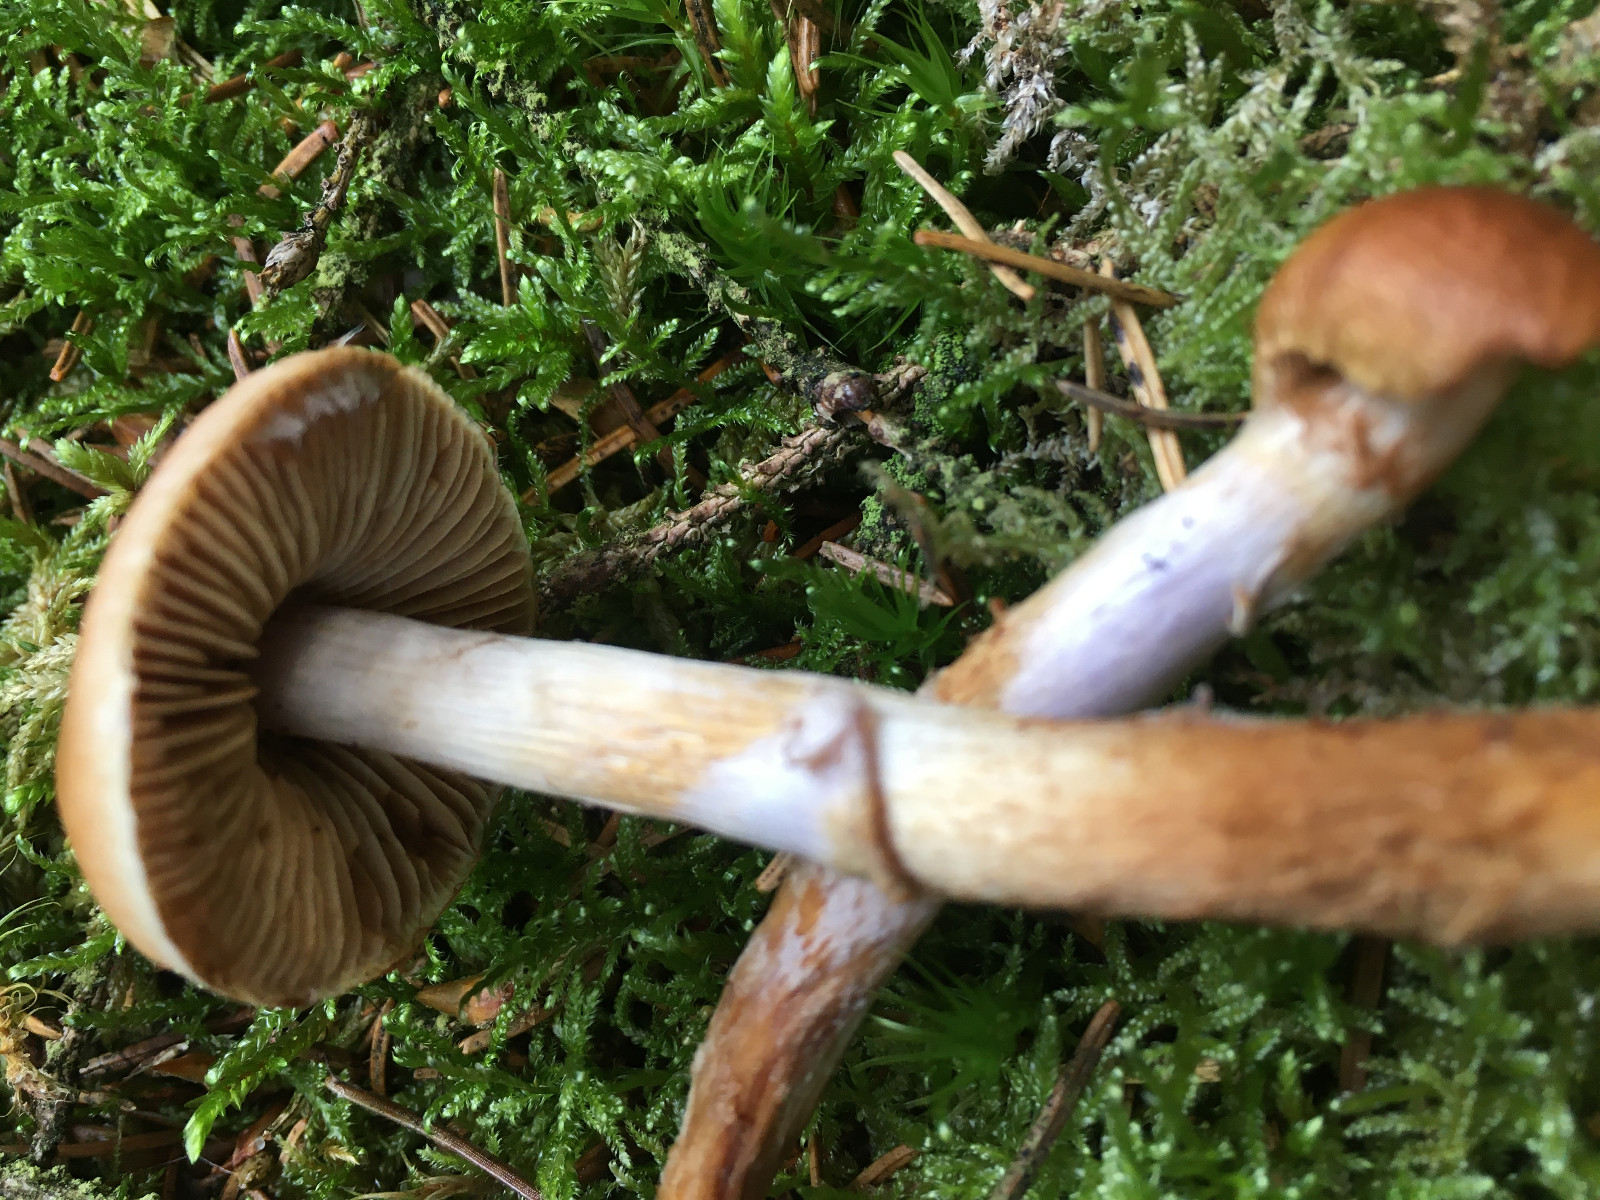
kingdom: Fungi
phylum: Basidiomycota
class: Agaricomycetes
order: Agaricales
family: Cortinariaceae
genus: Cortinarius
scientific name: Cortinarius collinitus
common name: spættet slørhat
